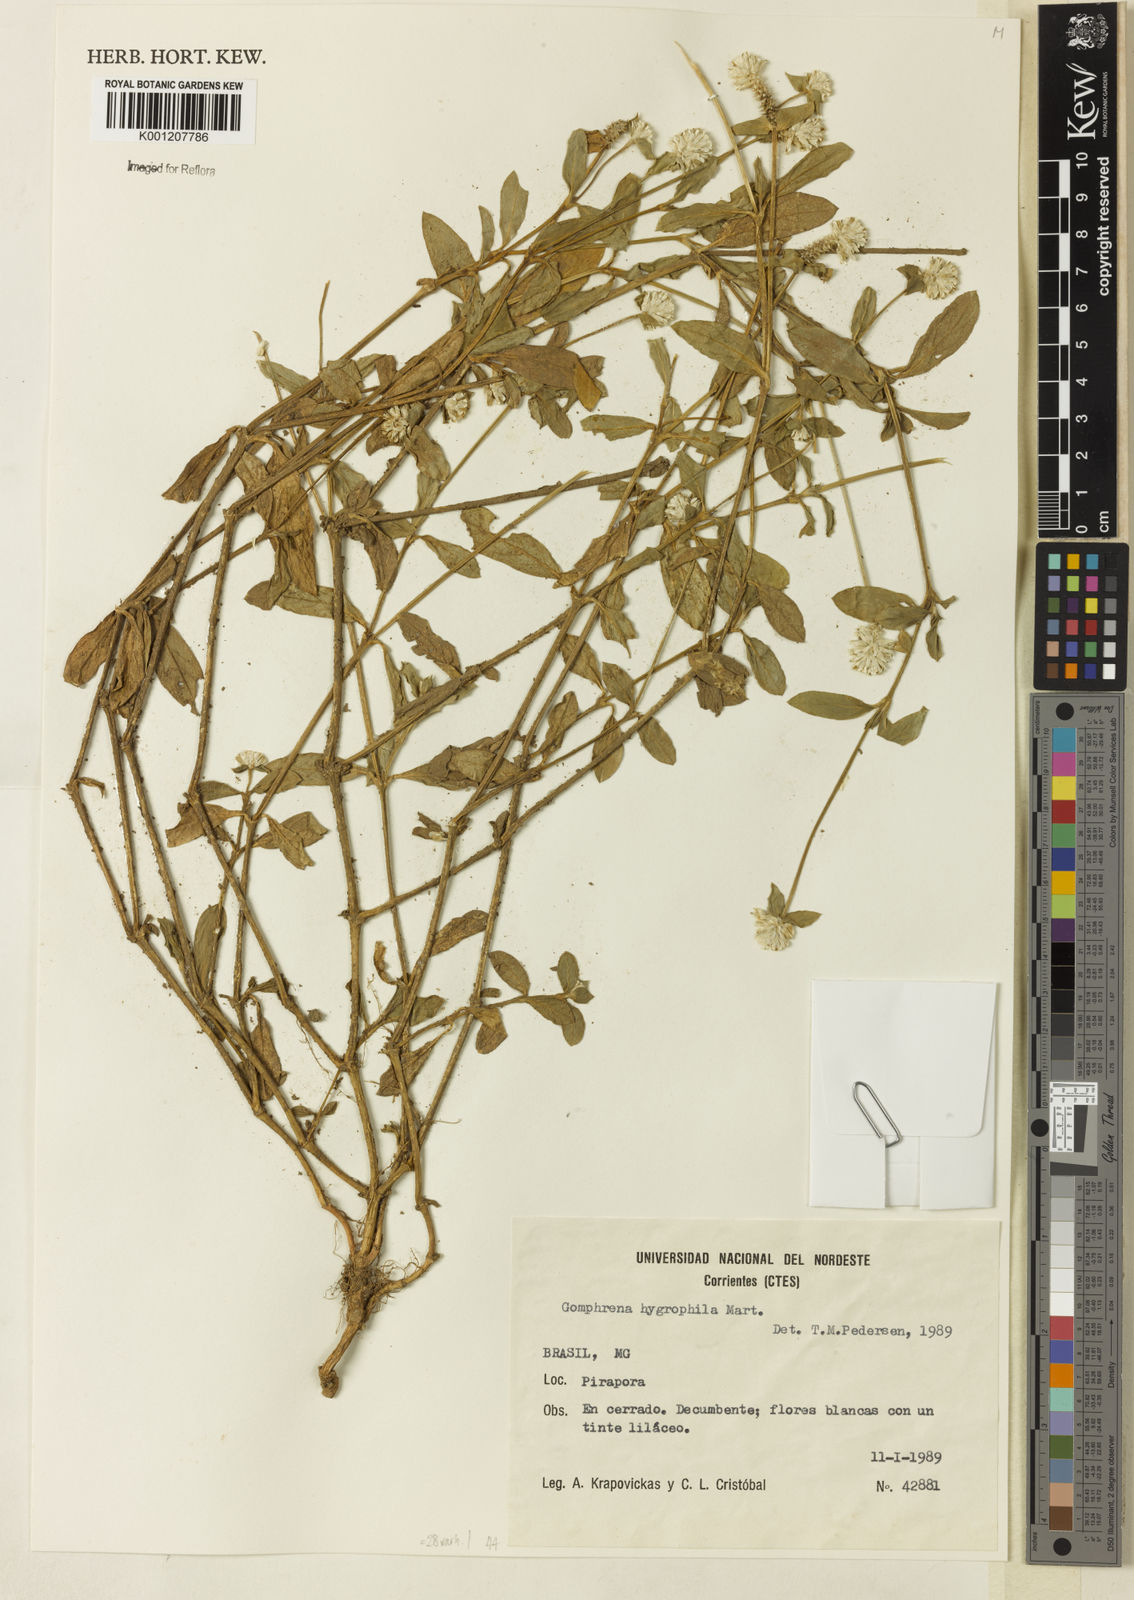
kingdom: Plantae
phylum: Tracheophyta
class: Magnoliopsida
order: Caryophyllales
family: Amaranthaceae
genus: Gomphrena
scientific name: Gomphrena desertorum
